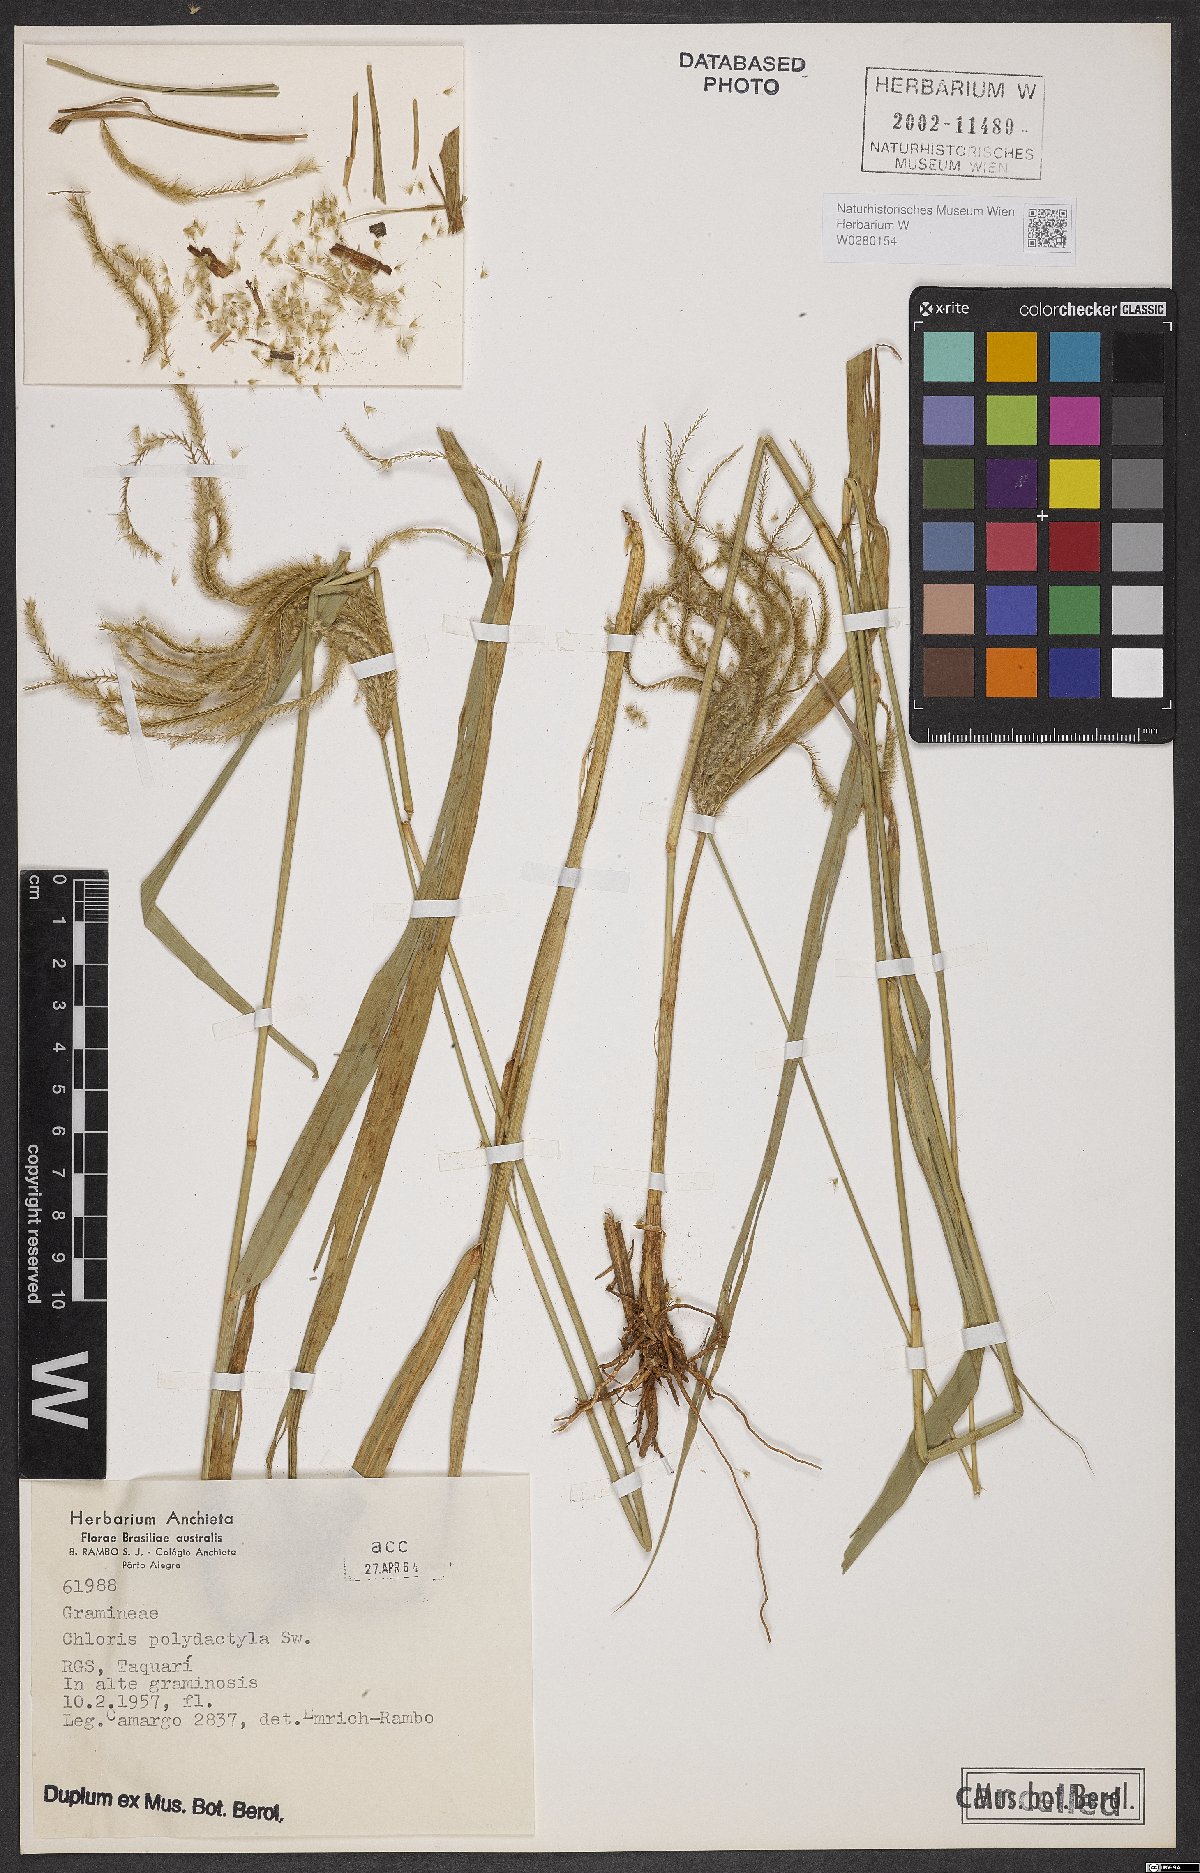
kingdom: Plantae
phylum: Tracheophyta
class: Liliopsida
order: Poales
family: Poaceae
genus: Stapfochloa
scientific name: Stapfochloa elata
